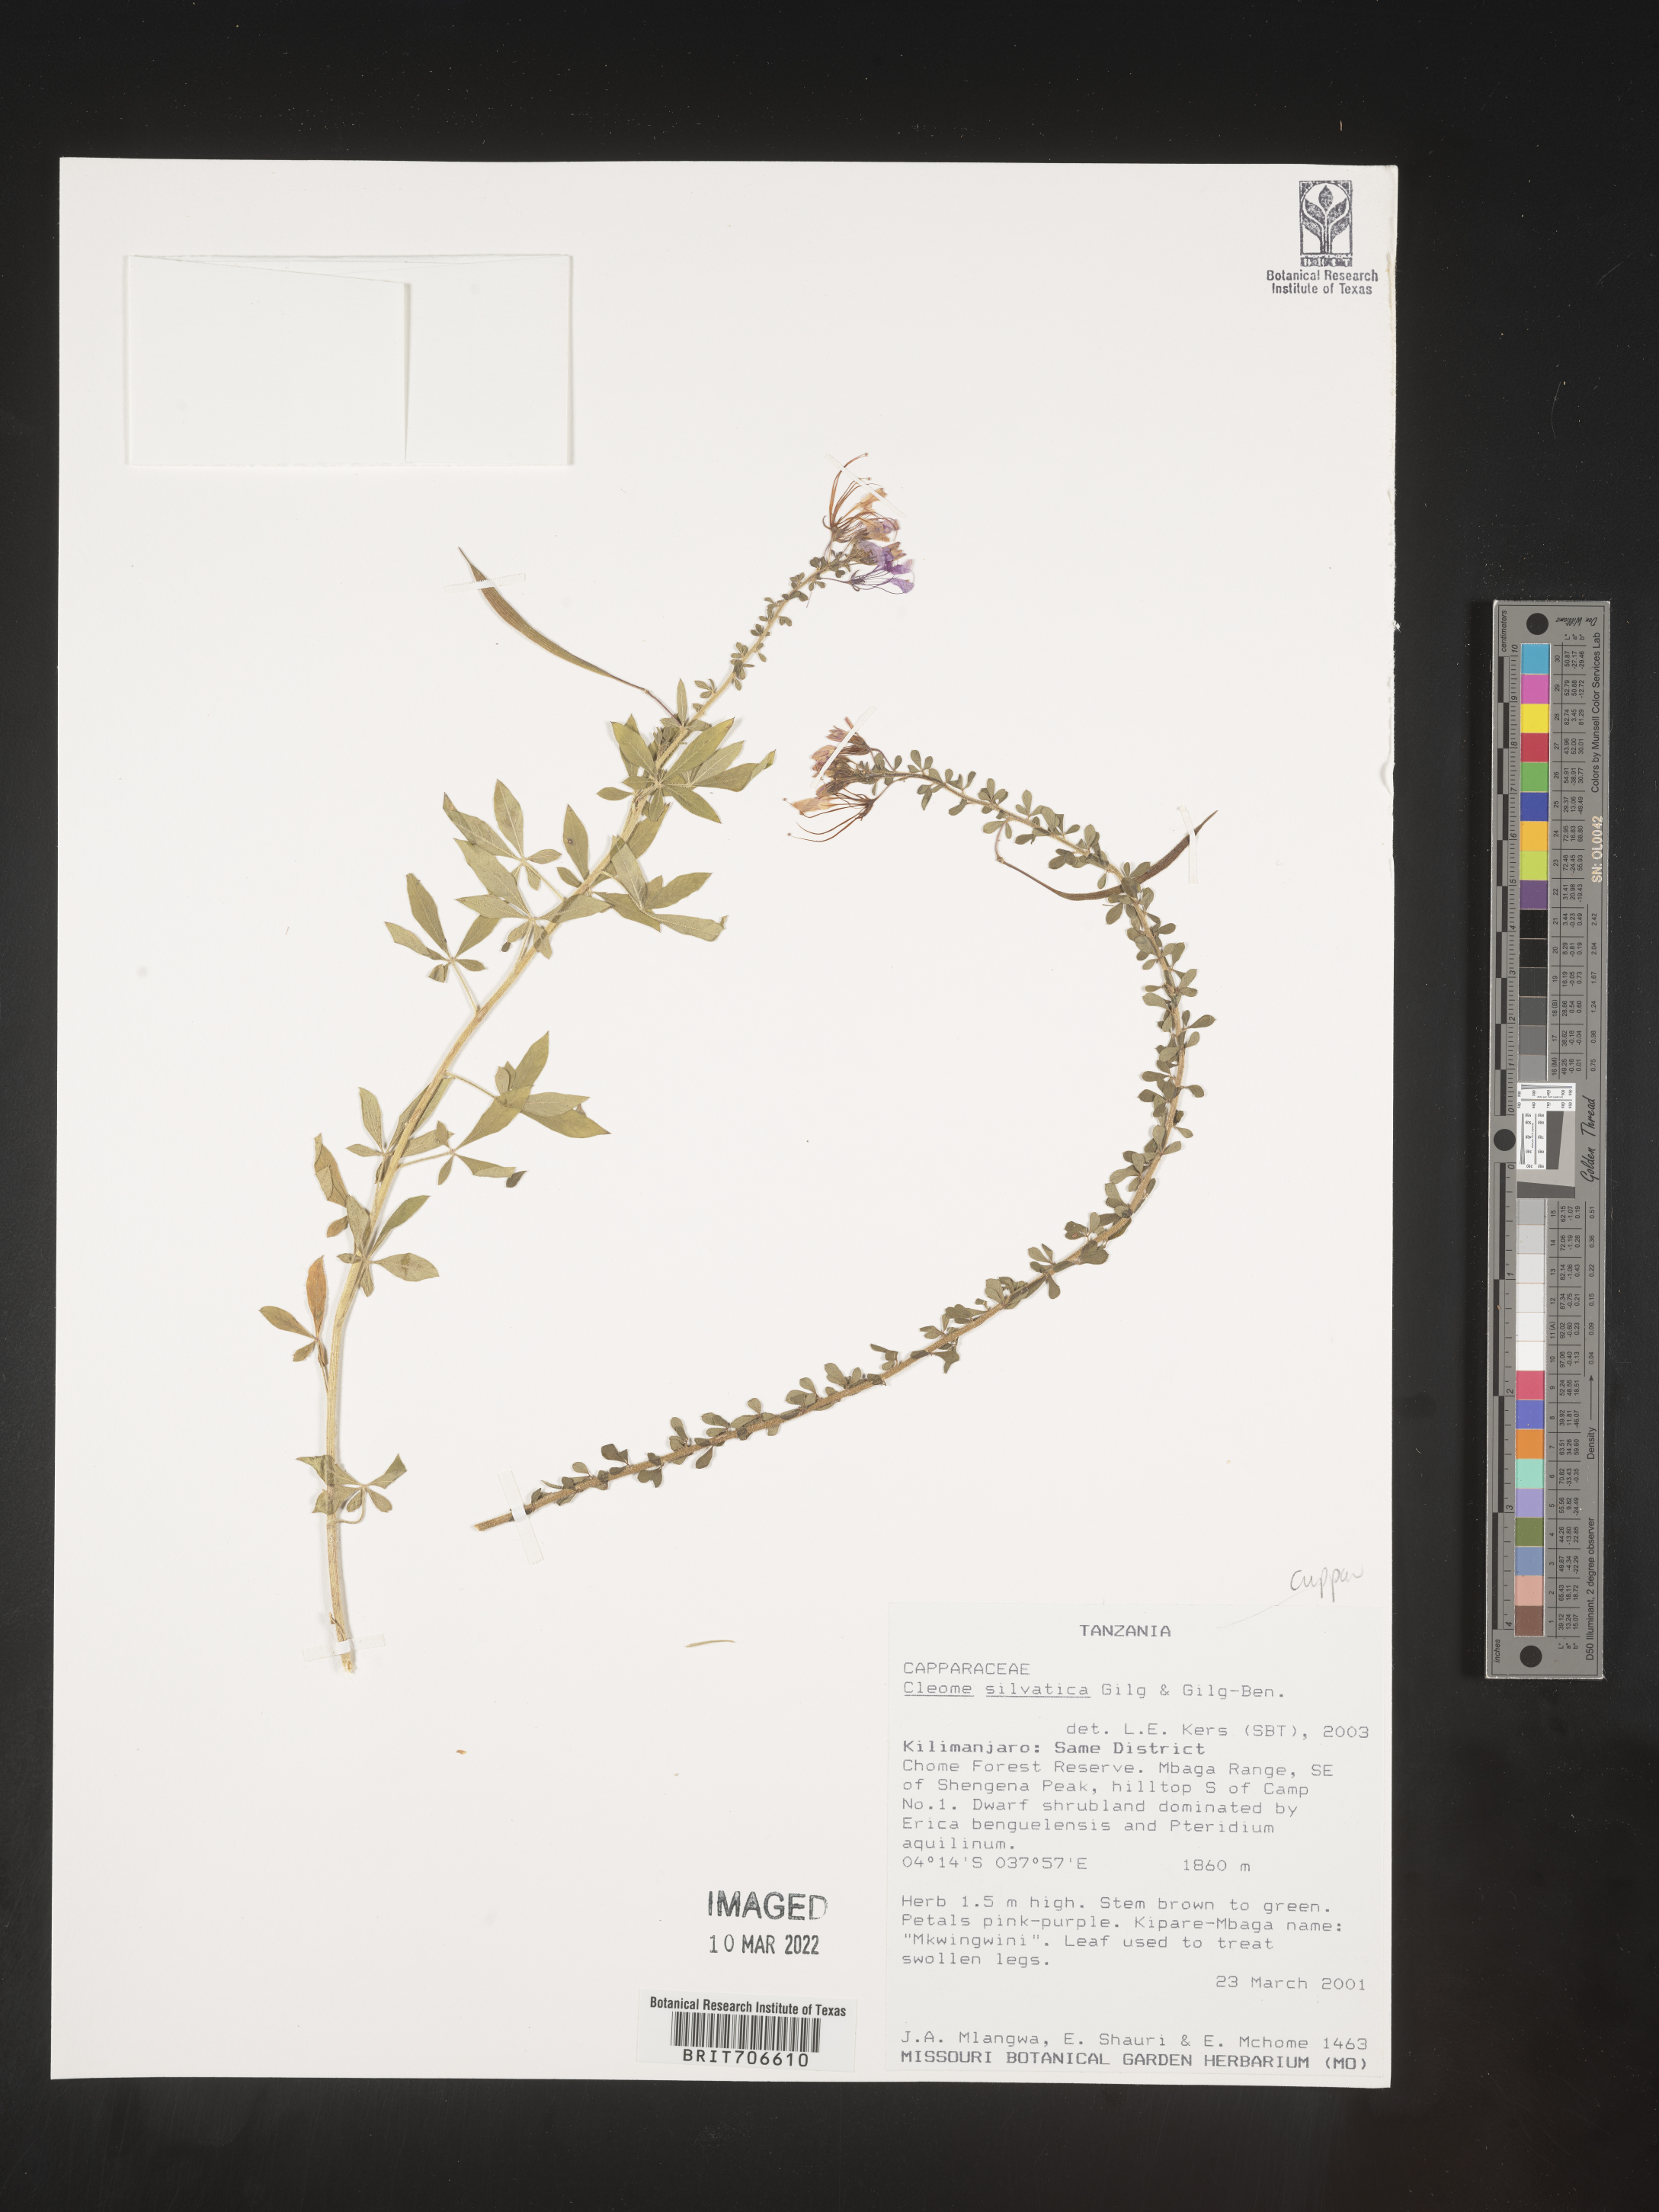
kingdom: Plantae
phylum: Tracheophyta
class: Magnoliopsida
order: Brassicales
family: Cleomaceae
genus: Cleome
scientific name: Cleome
